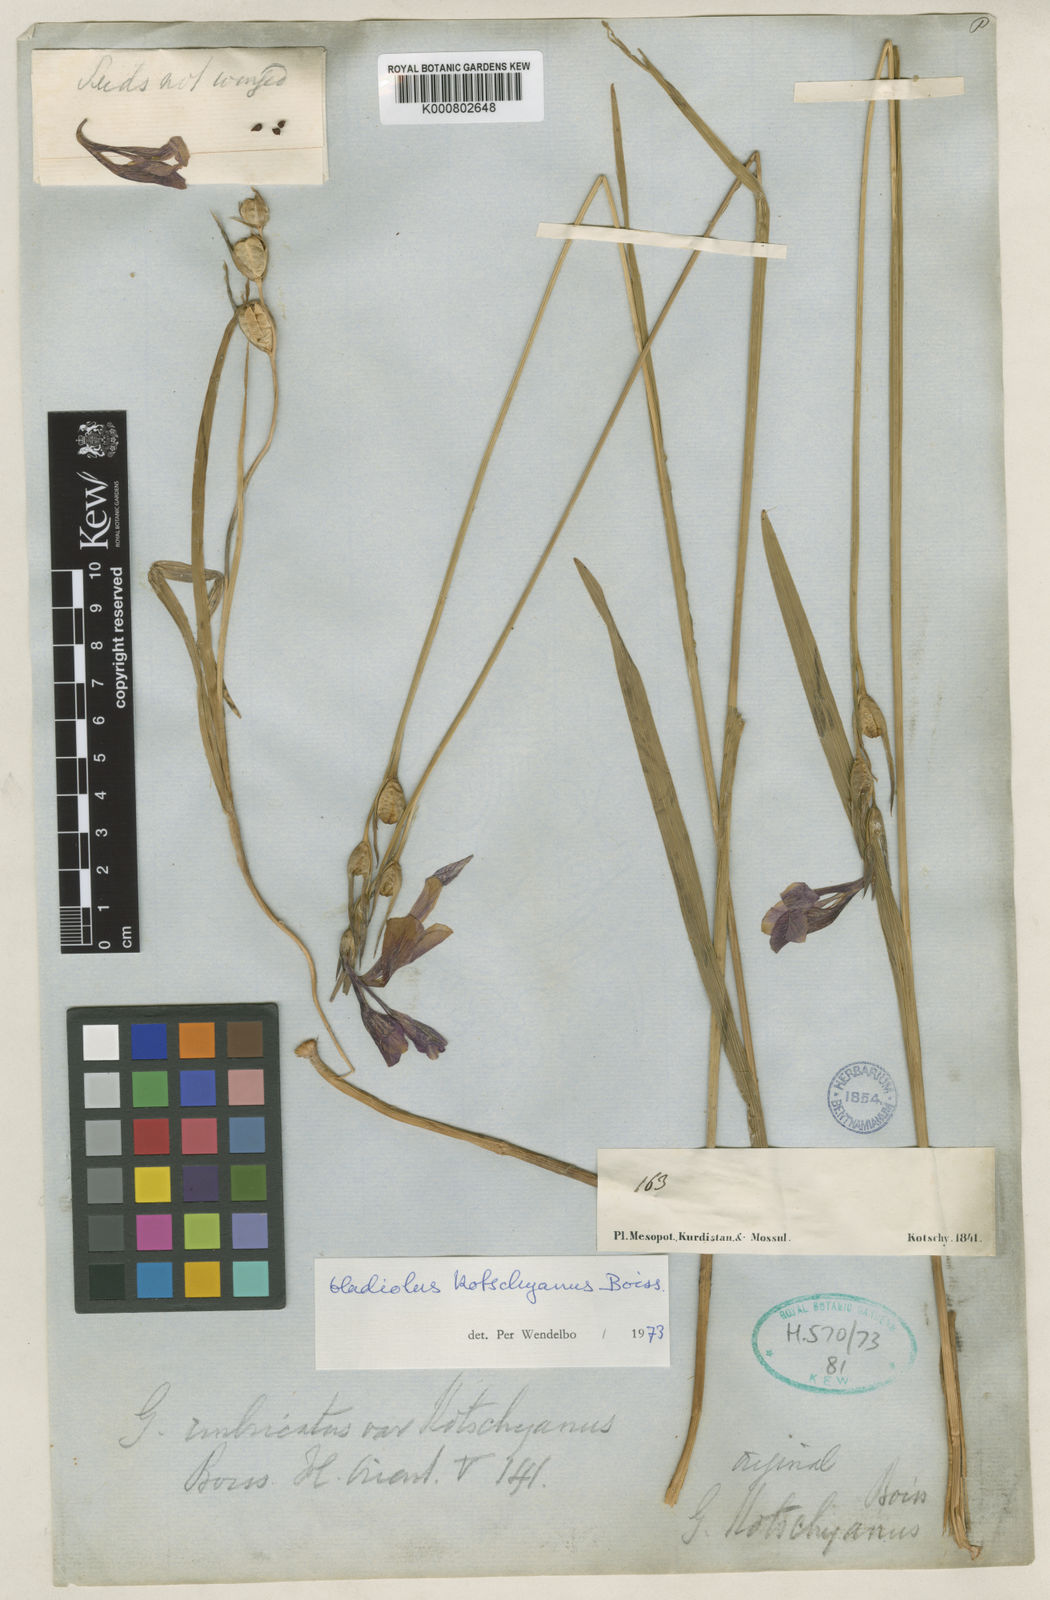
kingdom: Plantae
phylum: Tracheophyta
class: Liliopsida
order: Asparagales
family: Iridaceae
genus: Gladiolus
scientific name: Gladiolus kotschyanus
